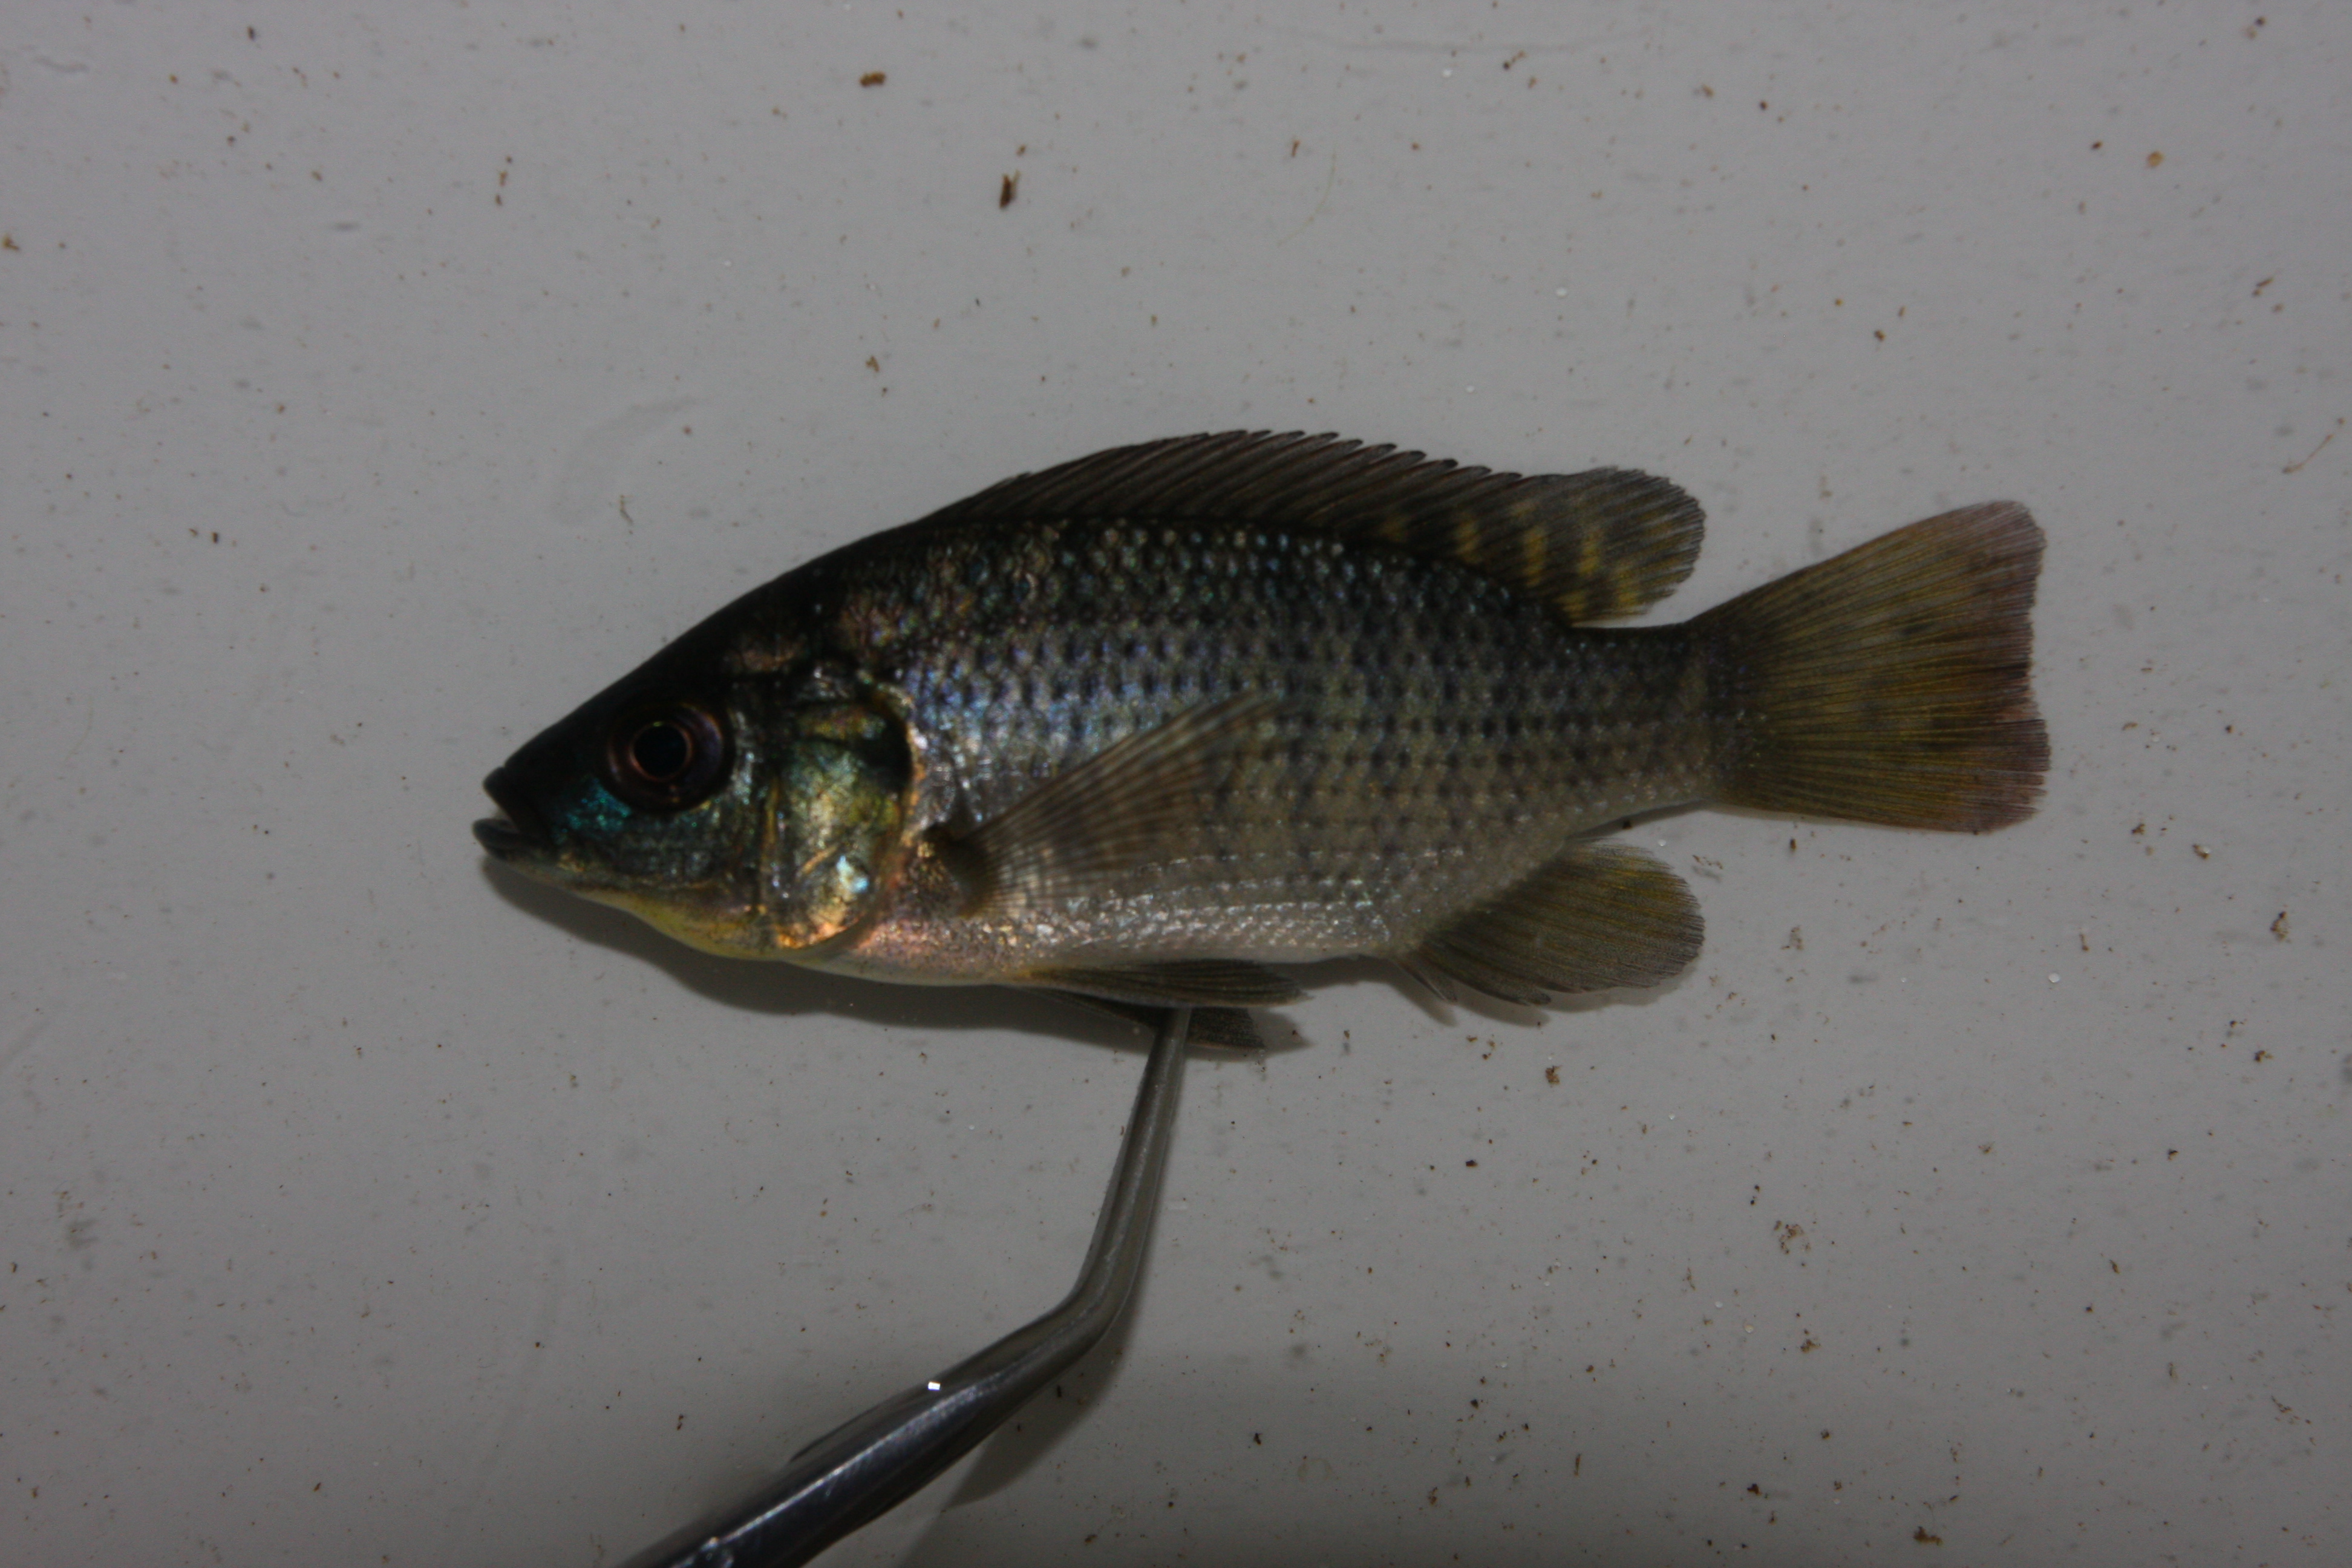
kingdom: Animalia
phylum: Chordata
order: Perciformes
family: Cichlidae
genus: Oreochromis
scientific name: Oreochromis mossambicus
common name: Mozambique tilapia
